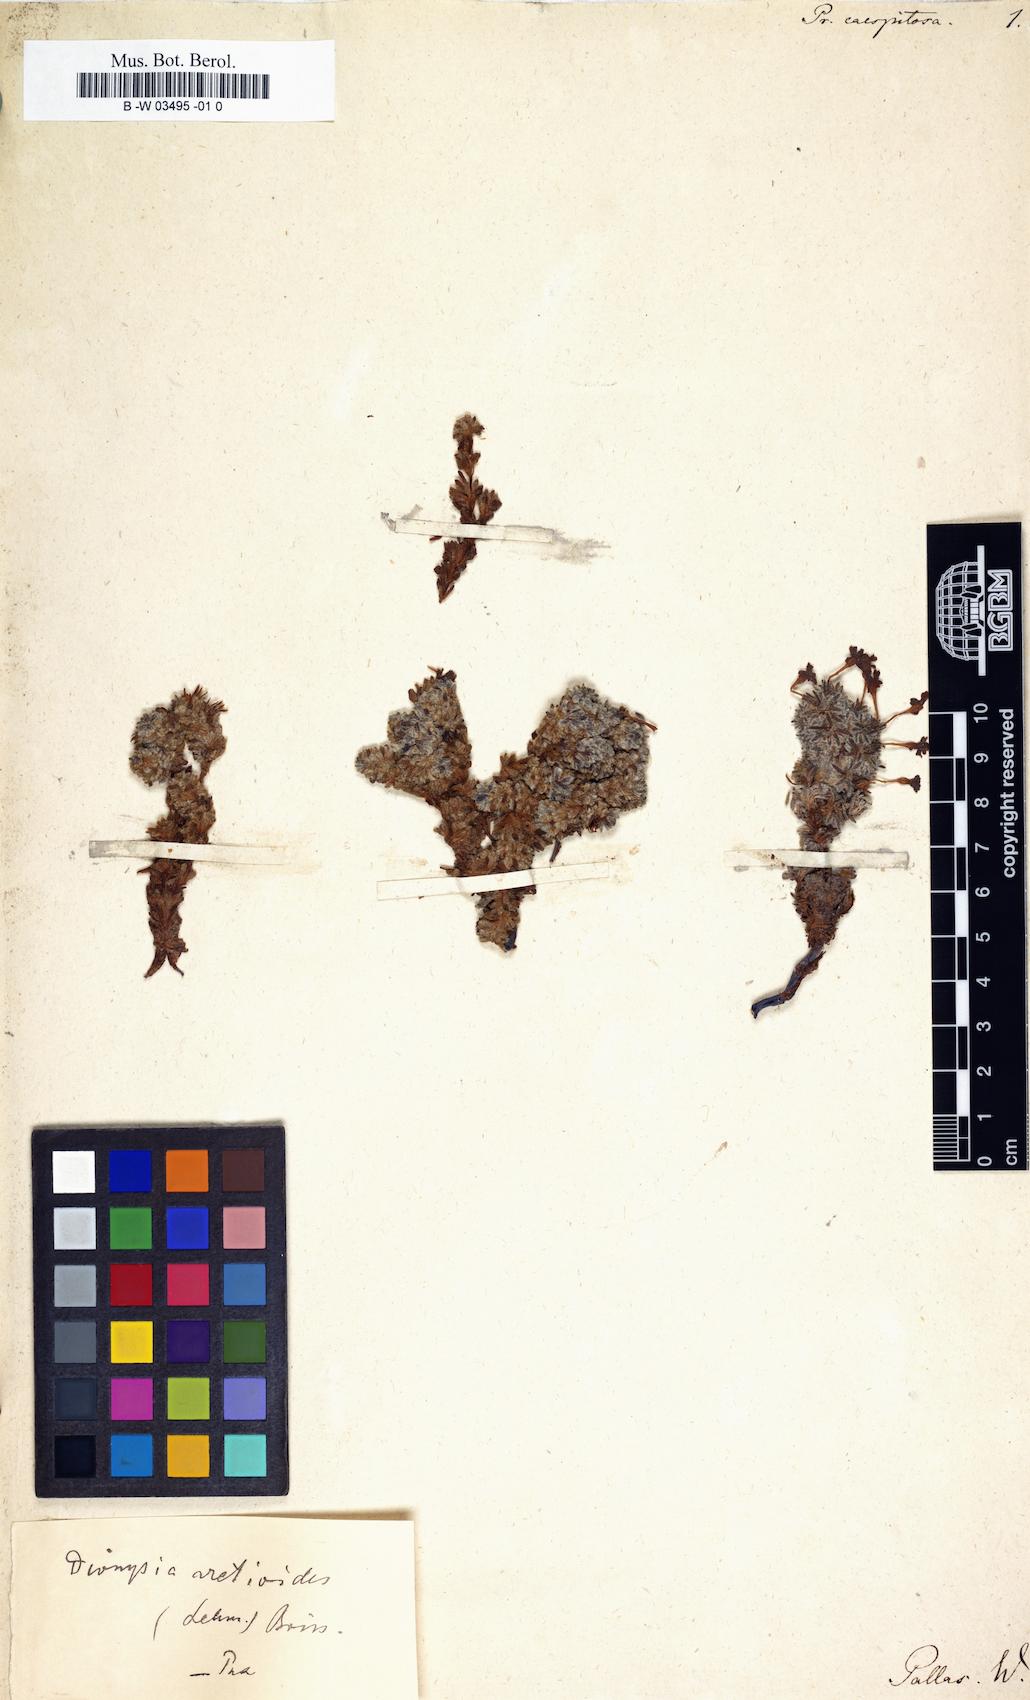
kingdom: Plantae
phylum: Tracheophyta
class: Magnoliopsida
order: Ericales
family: Primulaceae
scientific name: Primulaceae
